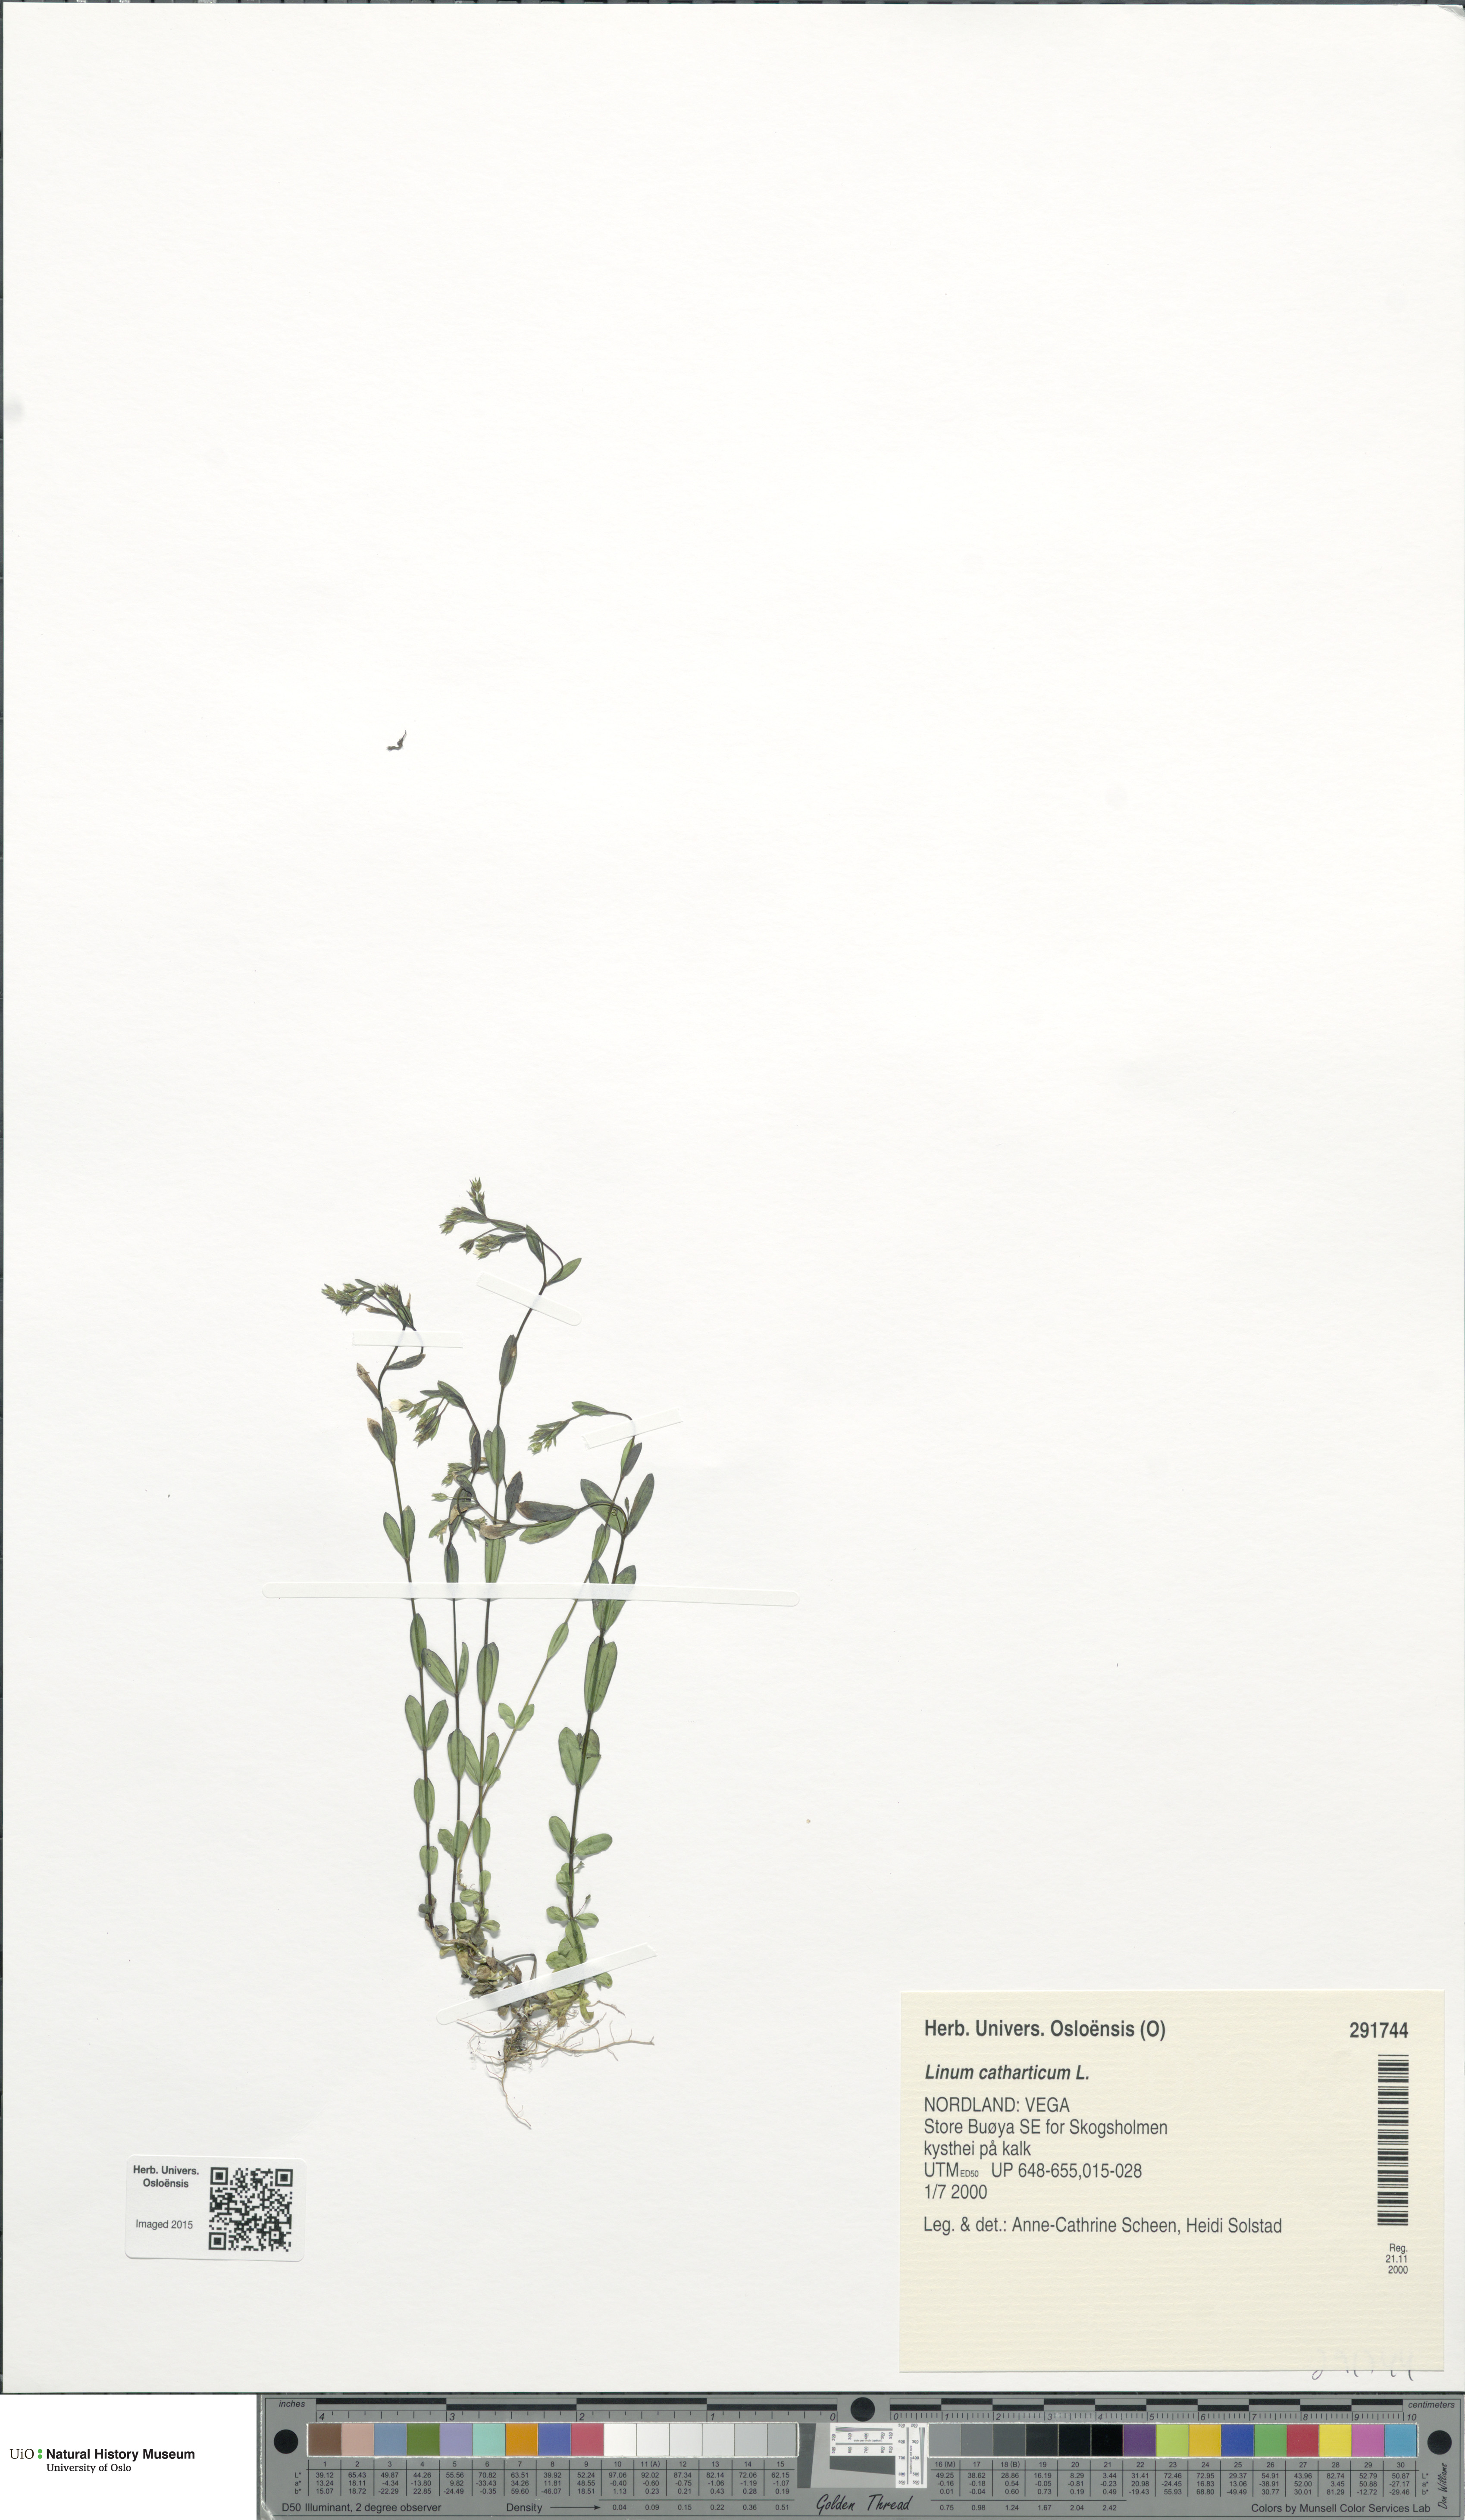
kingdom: Plantae
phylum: Tracheophyta
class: Magnoliopsida
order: Malpighiales
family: Linaceae
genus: Linum
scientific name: Linum catharticum
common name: Fairy flax
